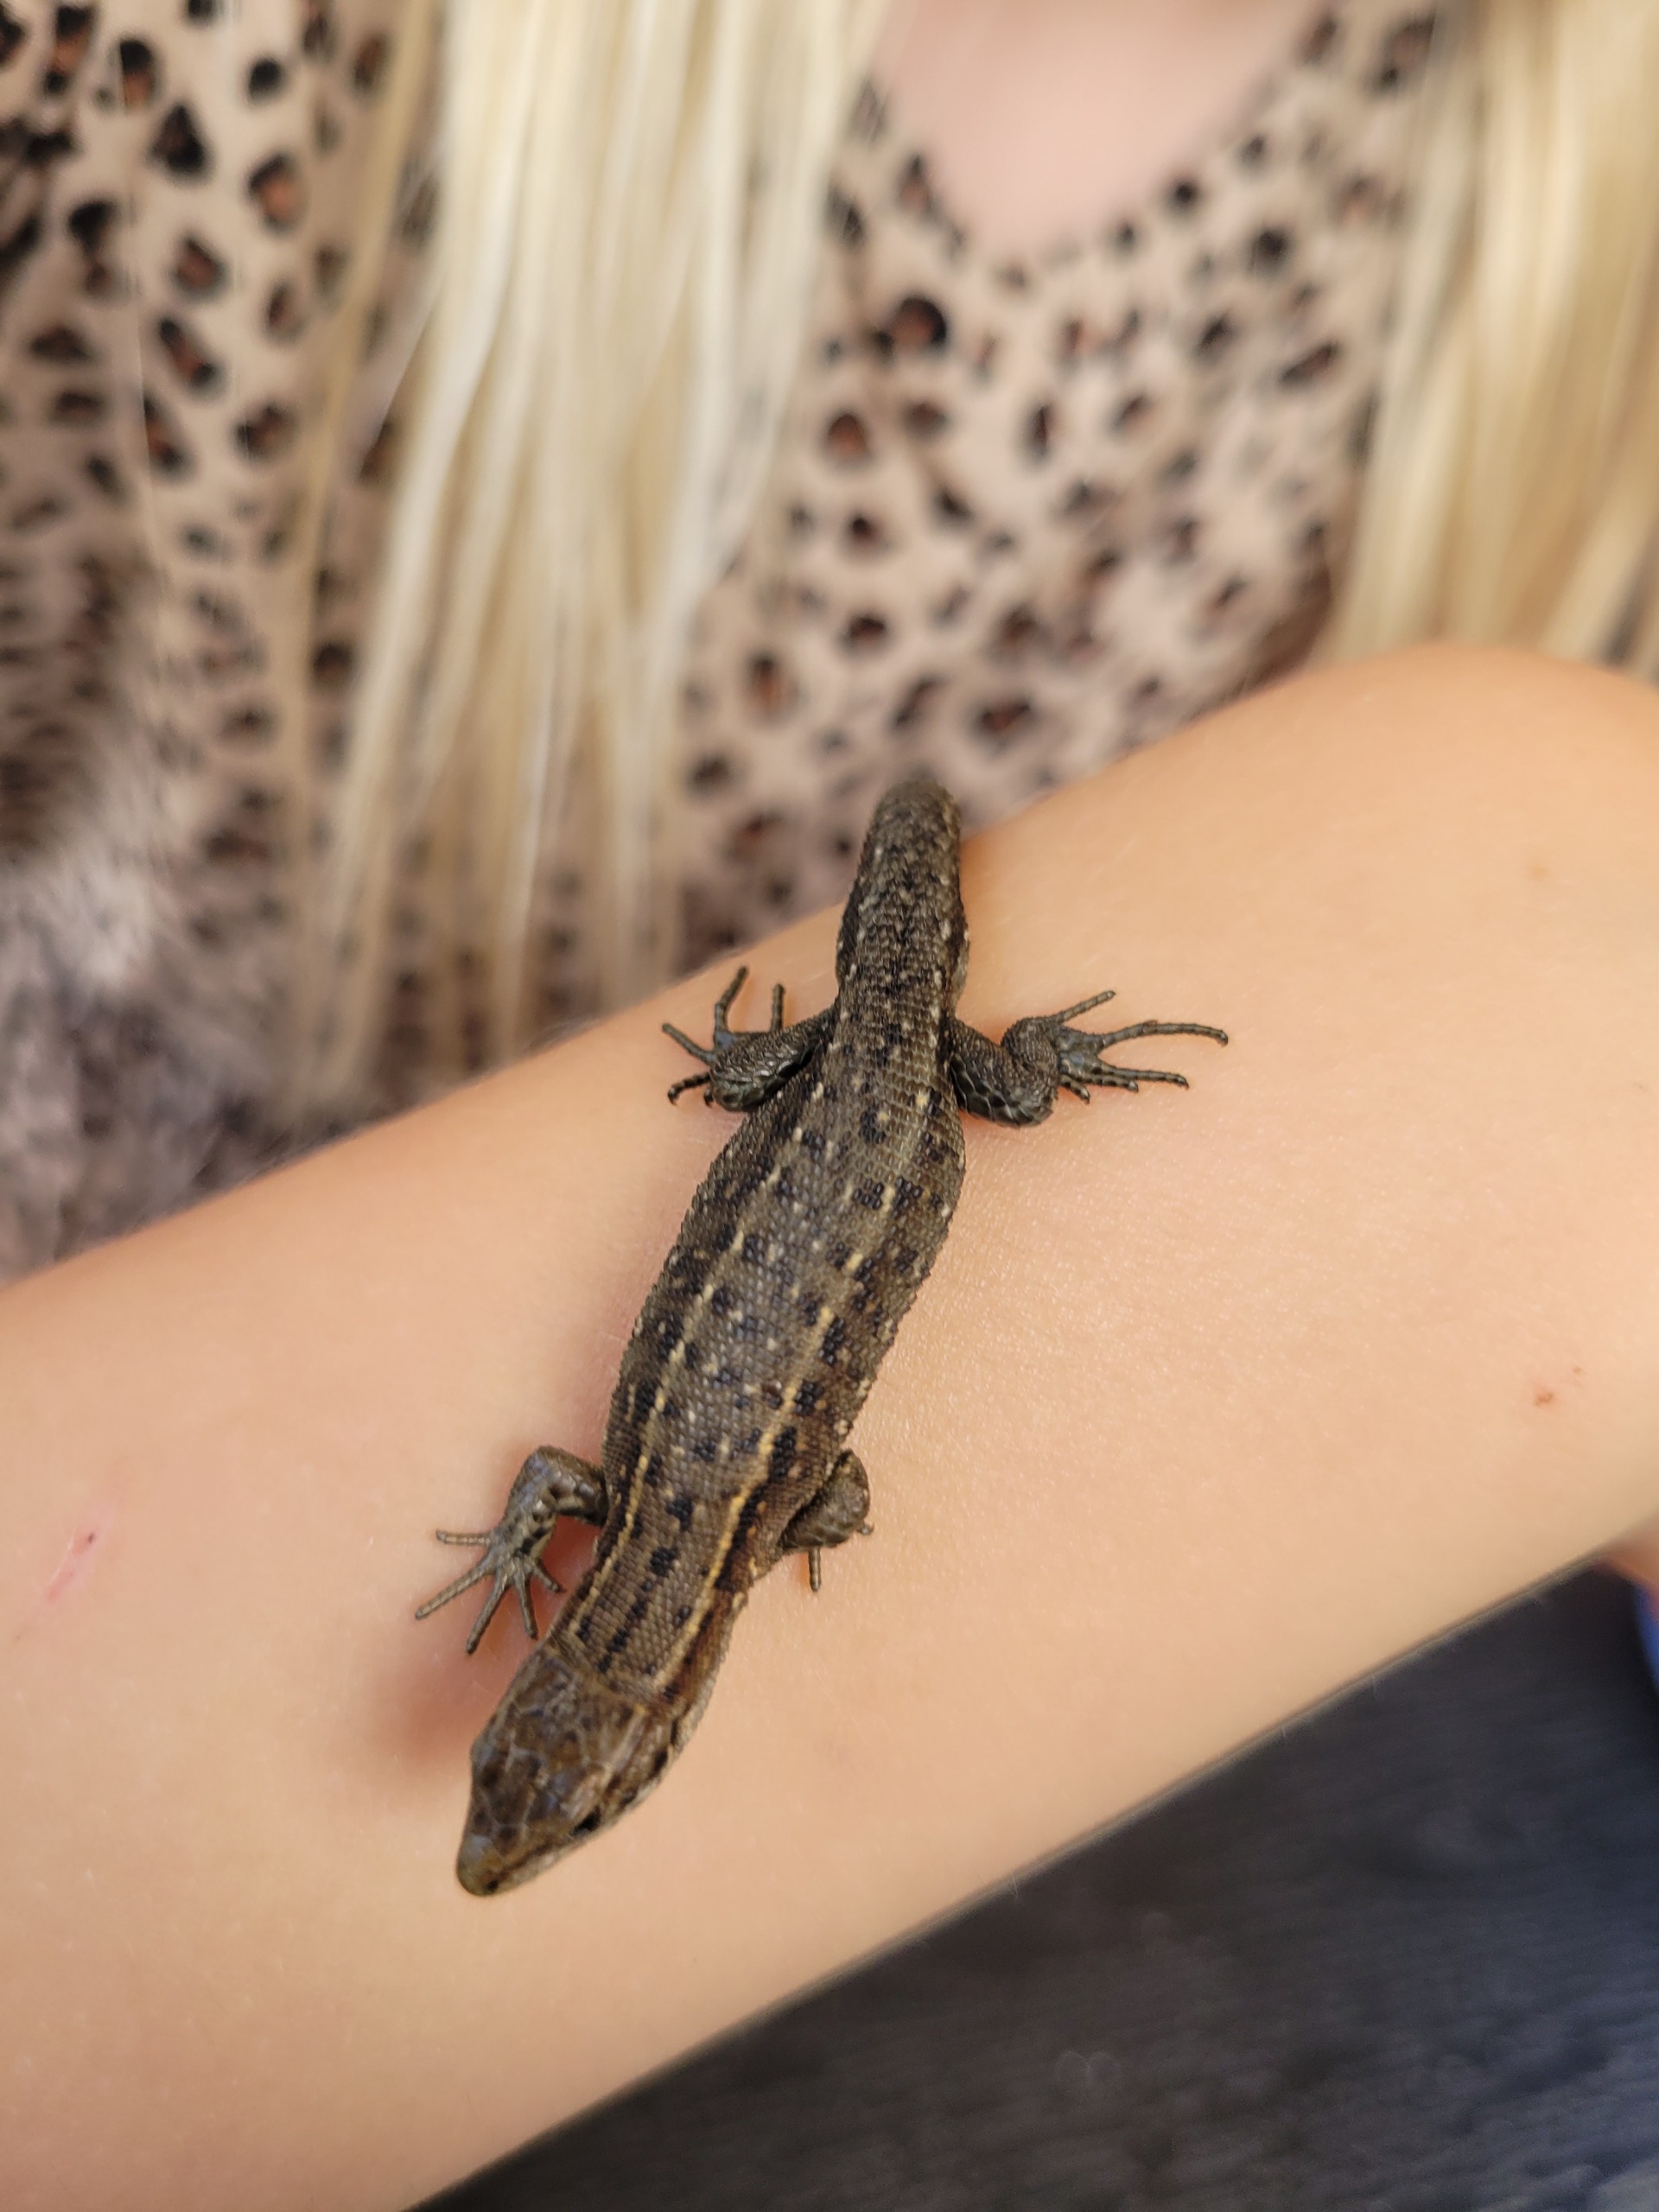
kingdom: Animalia
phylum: Chordata
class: Squamata
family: Lacertidae
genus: Zootoca
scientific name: Zootoca vivipara
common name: Skovfirben
